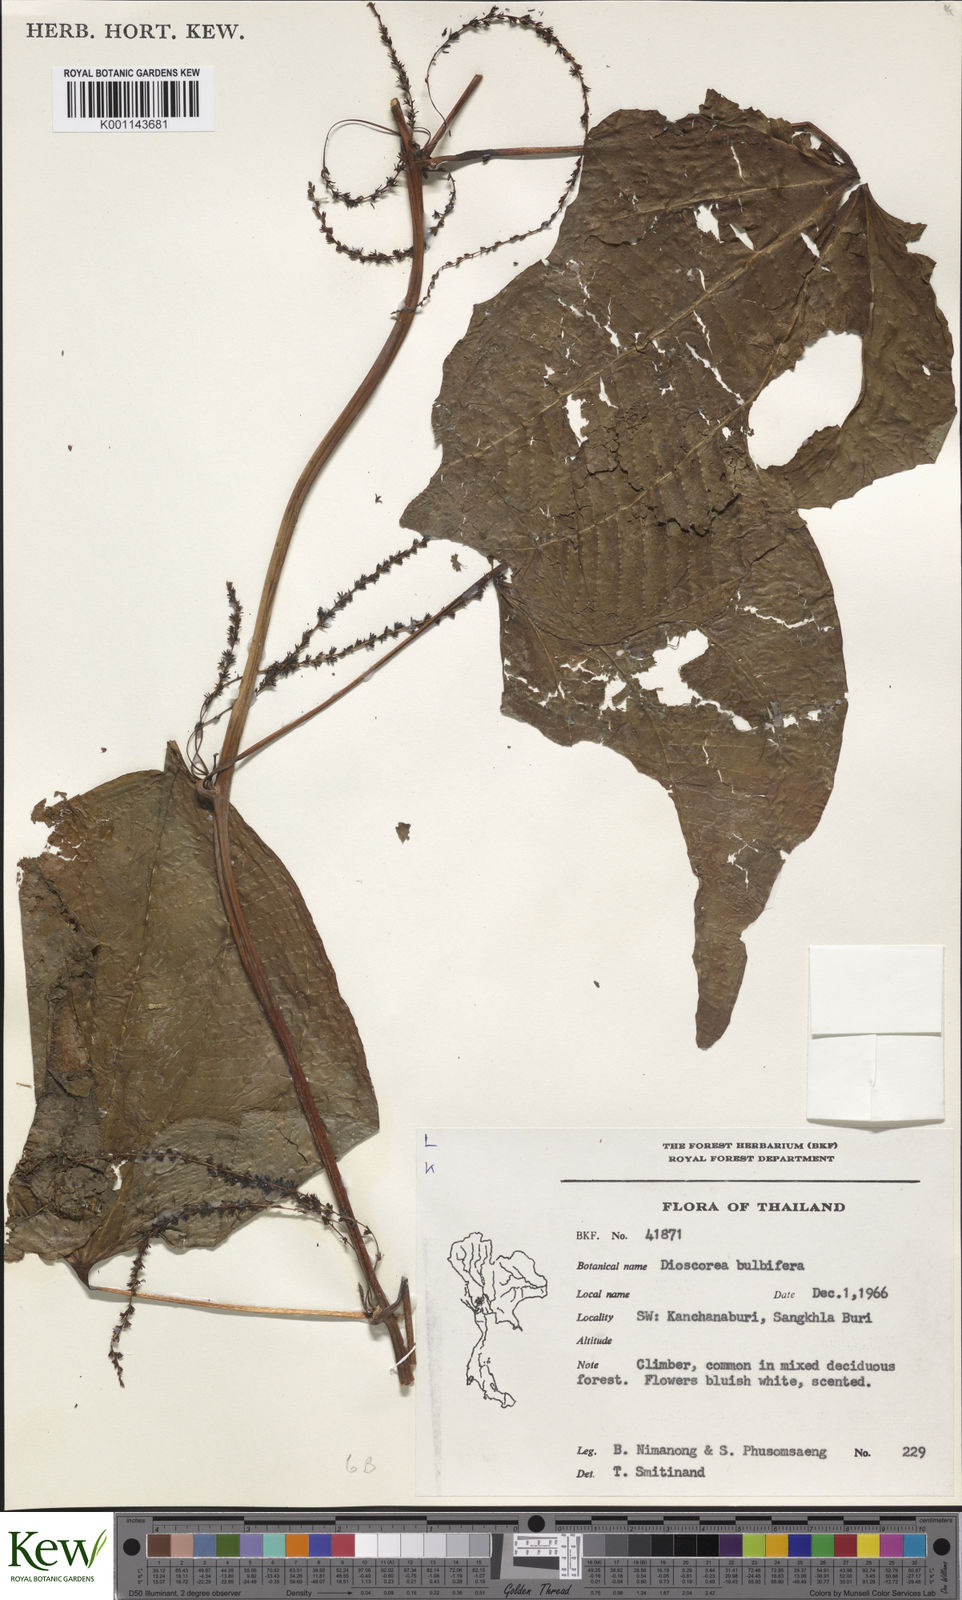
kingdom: Plantae
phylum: Tracheophyta
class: Liliopsida
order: Dioscoreales
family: Dioscoreaceae
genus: Dioscorea
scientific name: Dioscorea
